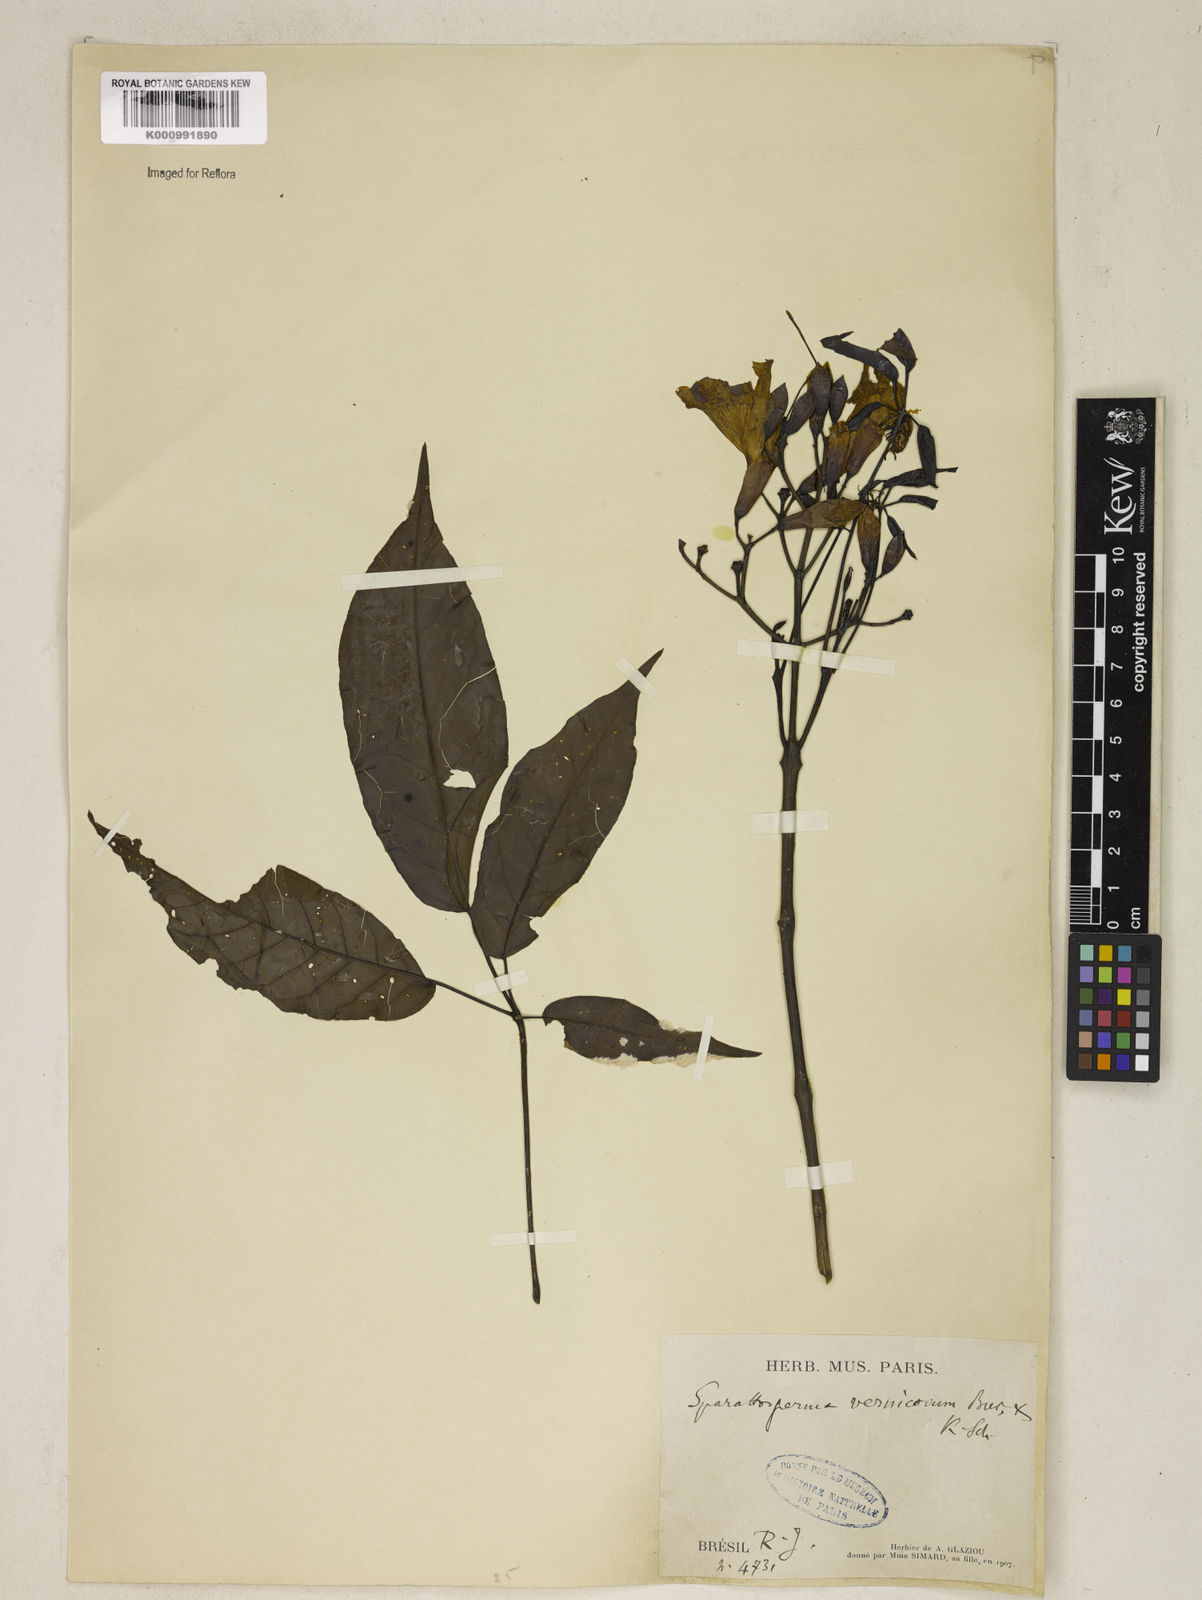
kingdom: Plantae
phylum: Tracheophyta
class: Magnoliopsida
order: Lamiales
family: Bignoniaceae
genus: Sparattosperma
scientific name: Sparattosperma leucanthum
